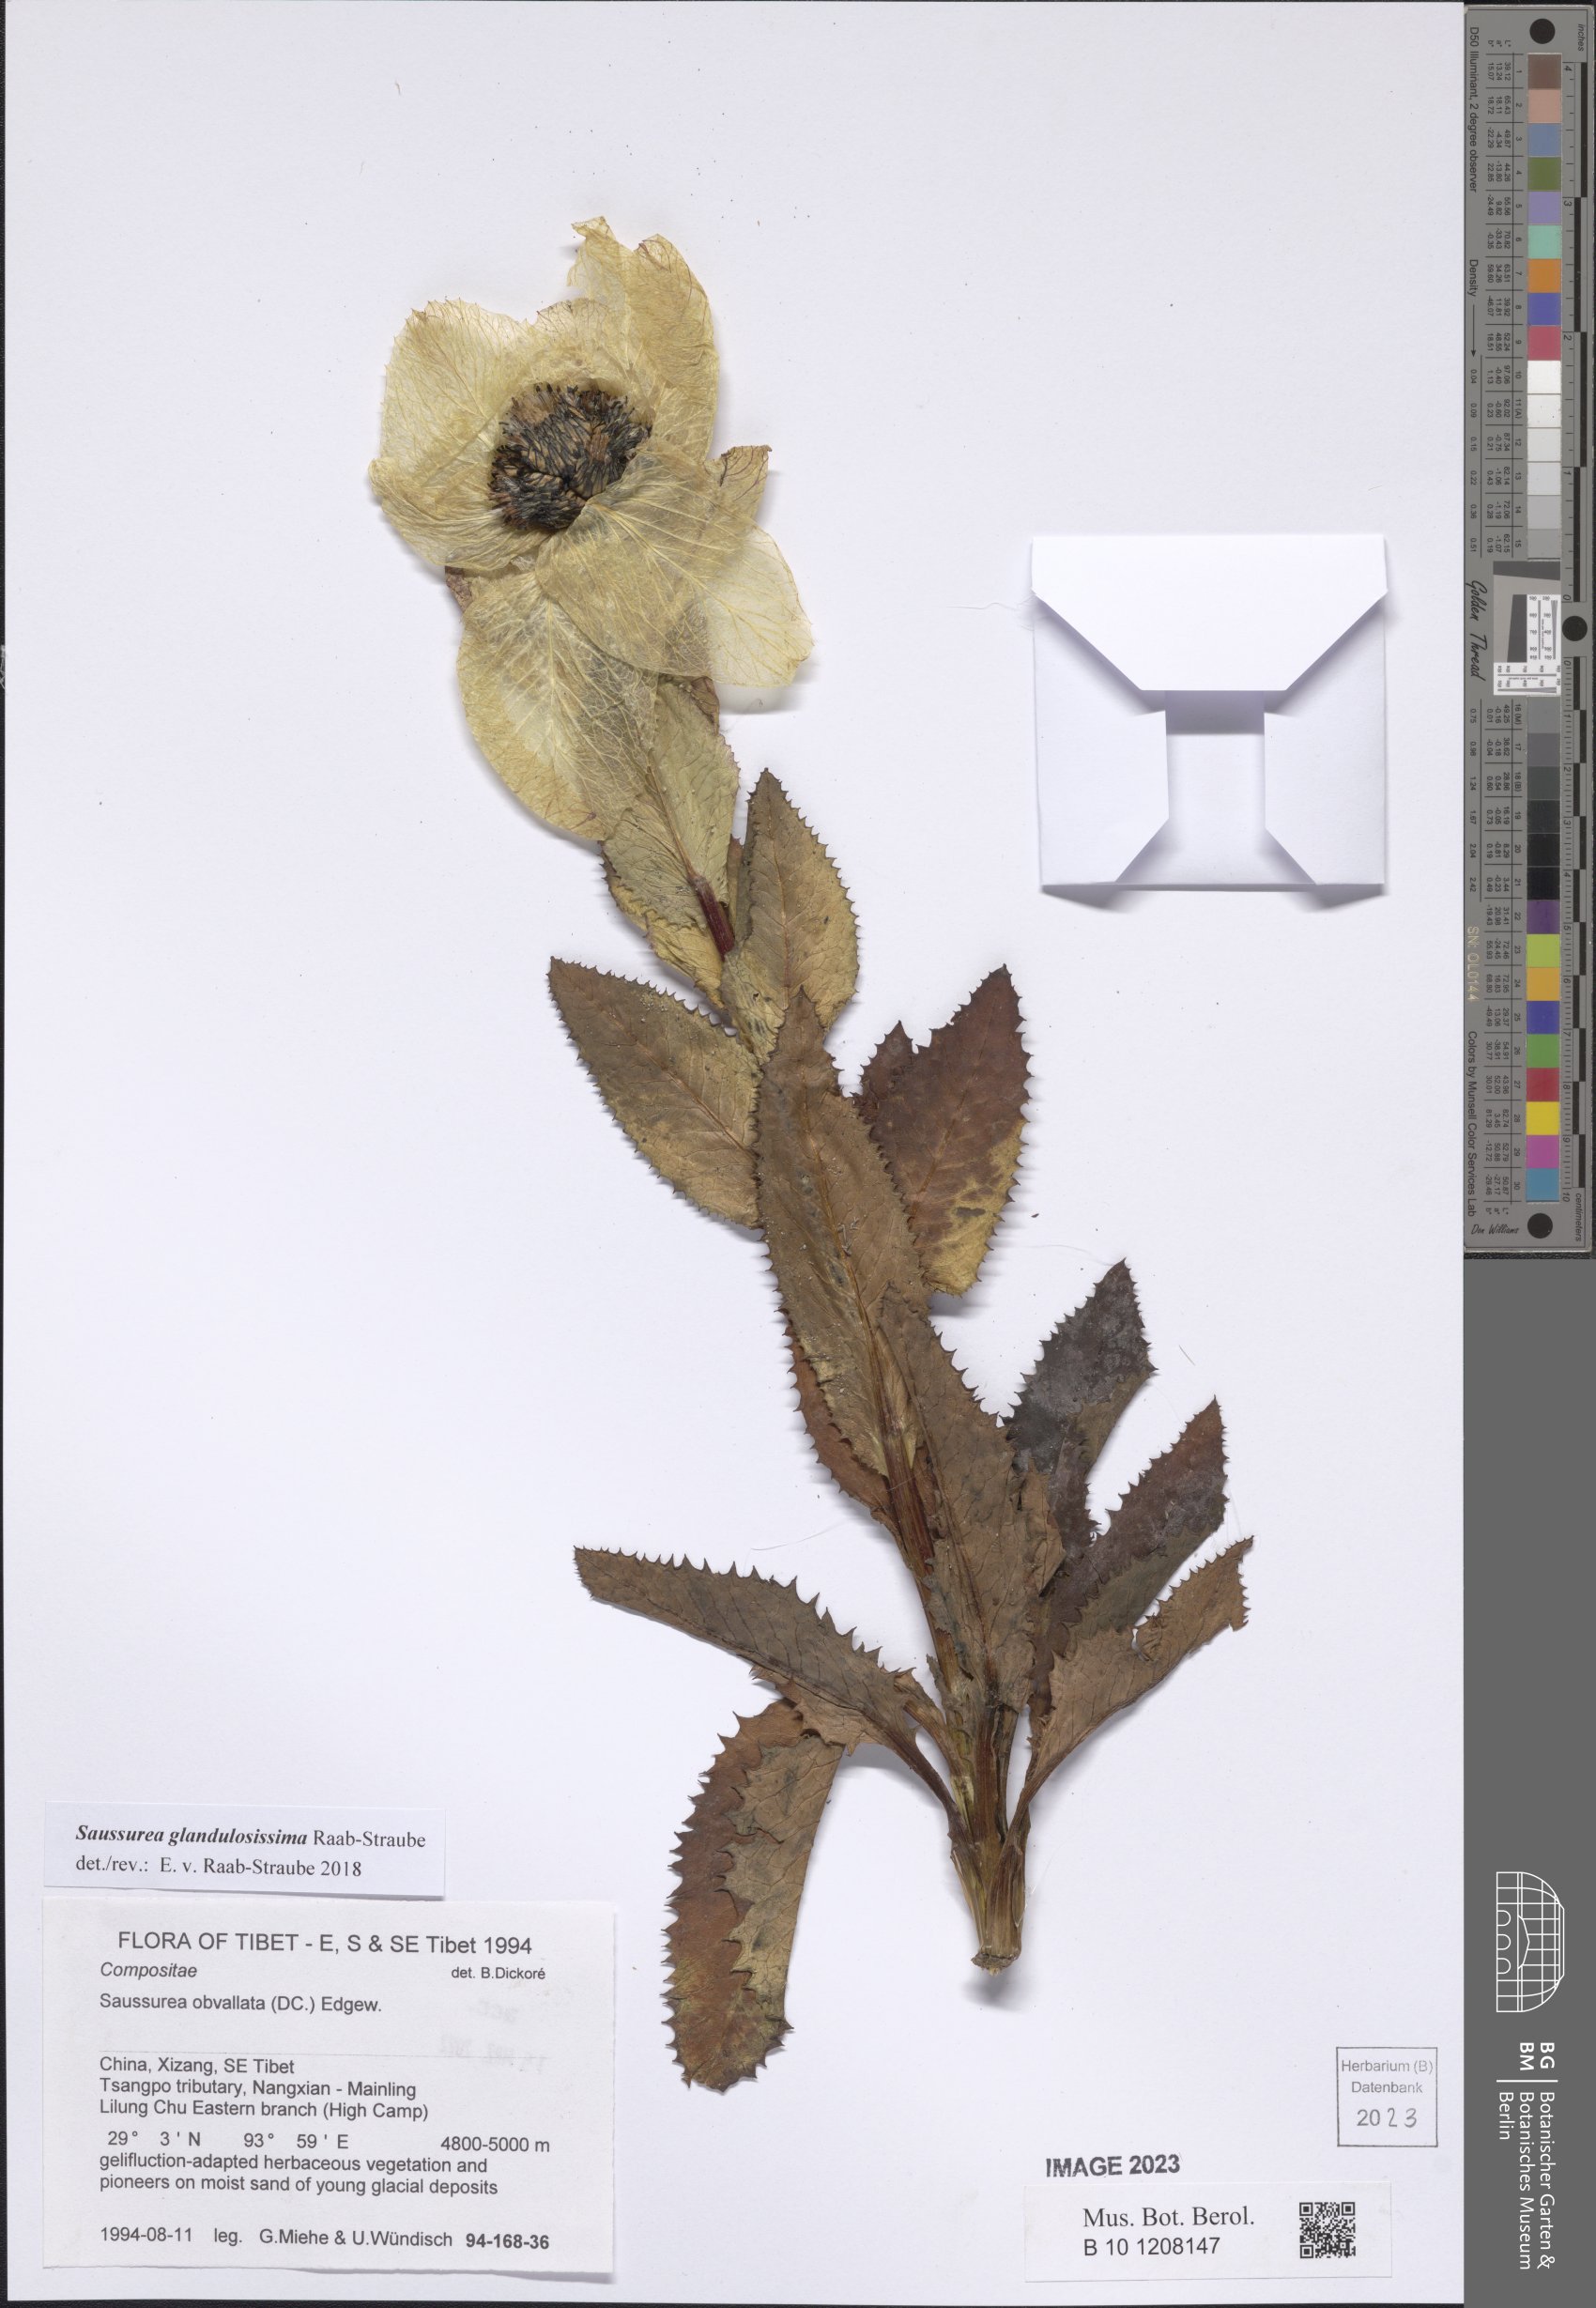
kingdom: Plantae
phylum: Tracheophyta
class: Magnoliopsida
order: Asterales
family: Asteraceae
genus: Saussurea
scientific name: Saussurea glandulosissima
